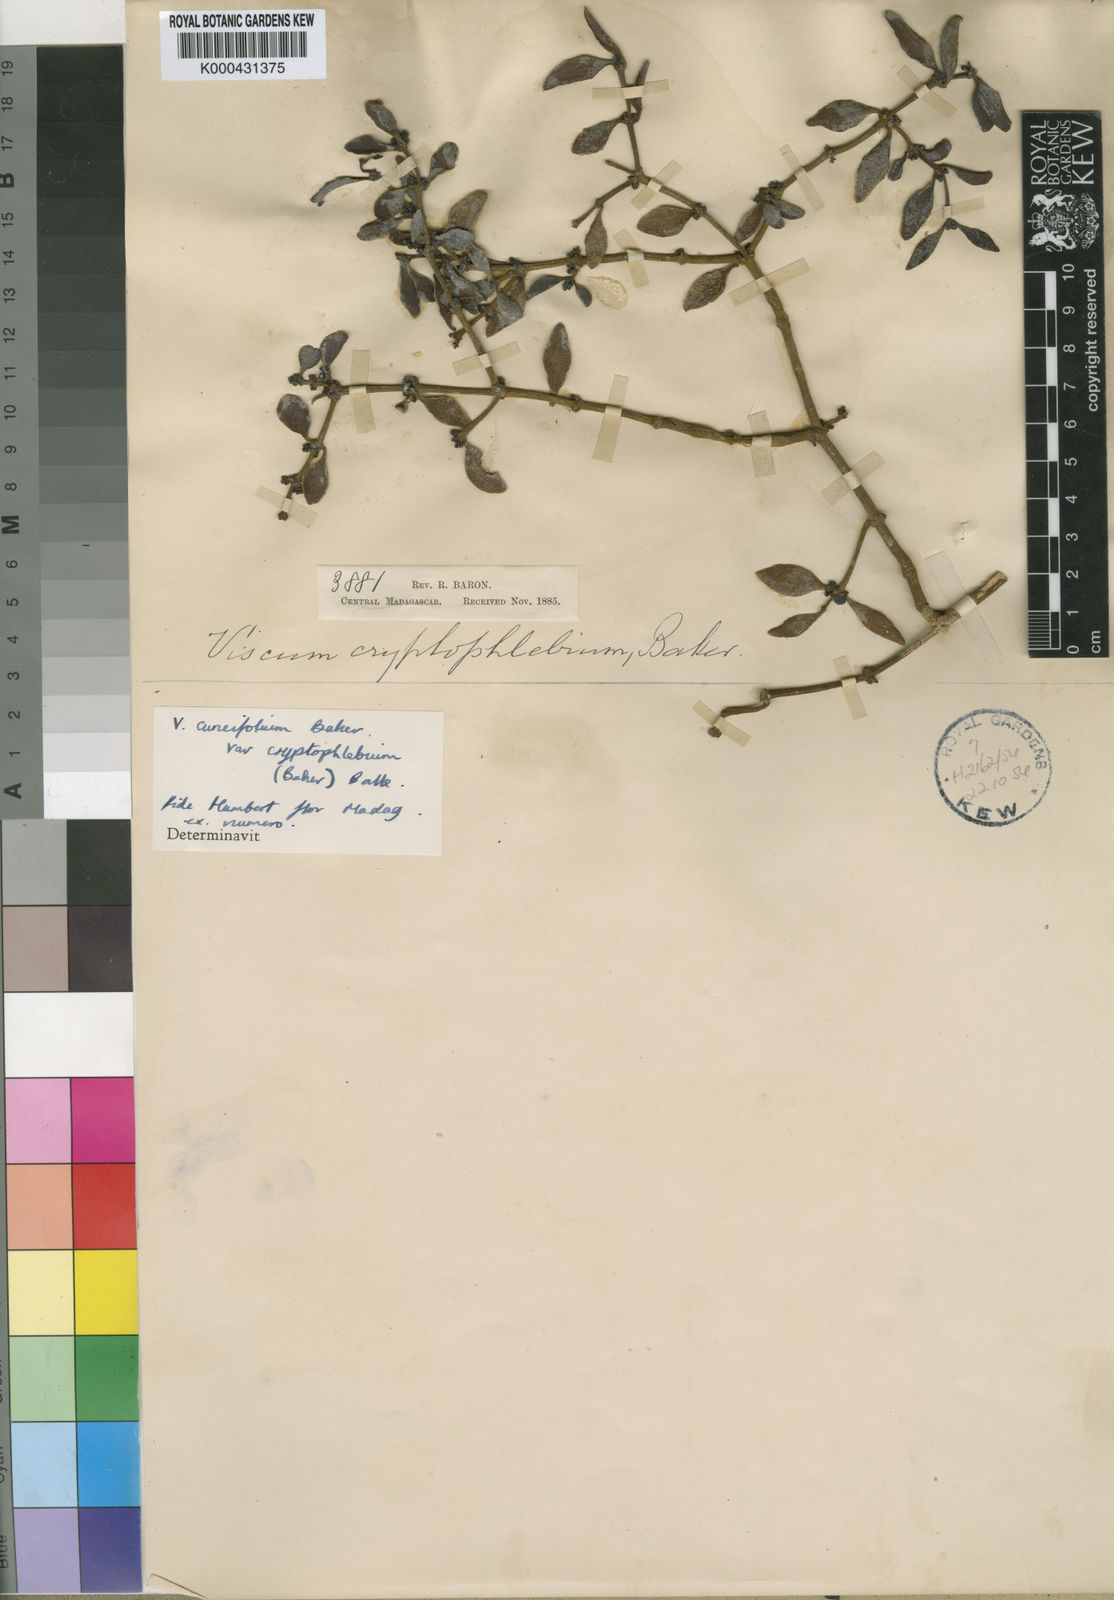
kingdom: Plantae
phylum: Tracheophyta
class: Magnoliopsida
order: Santalales
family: Viscaceae
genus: Viscum
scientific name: Viscum cuneifolium
